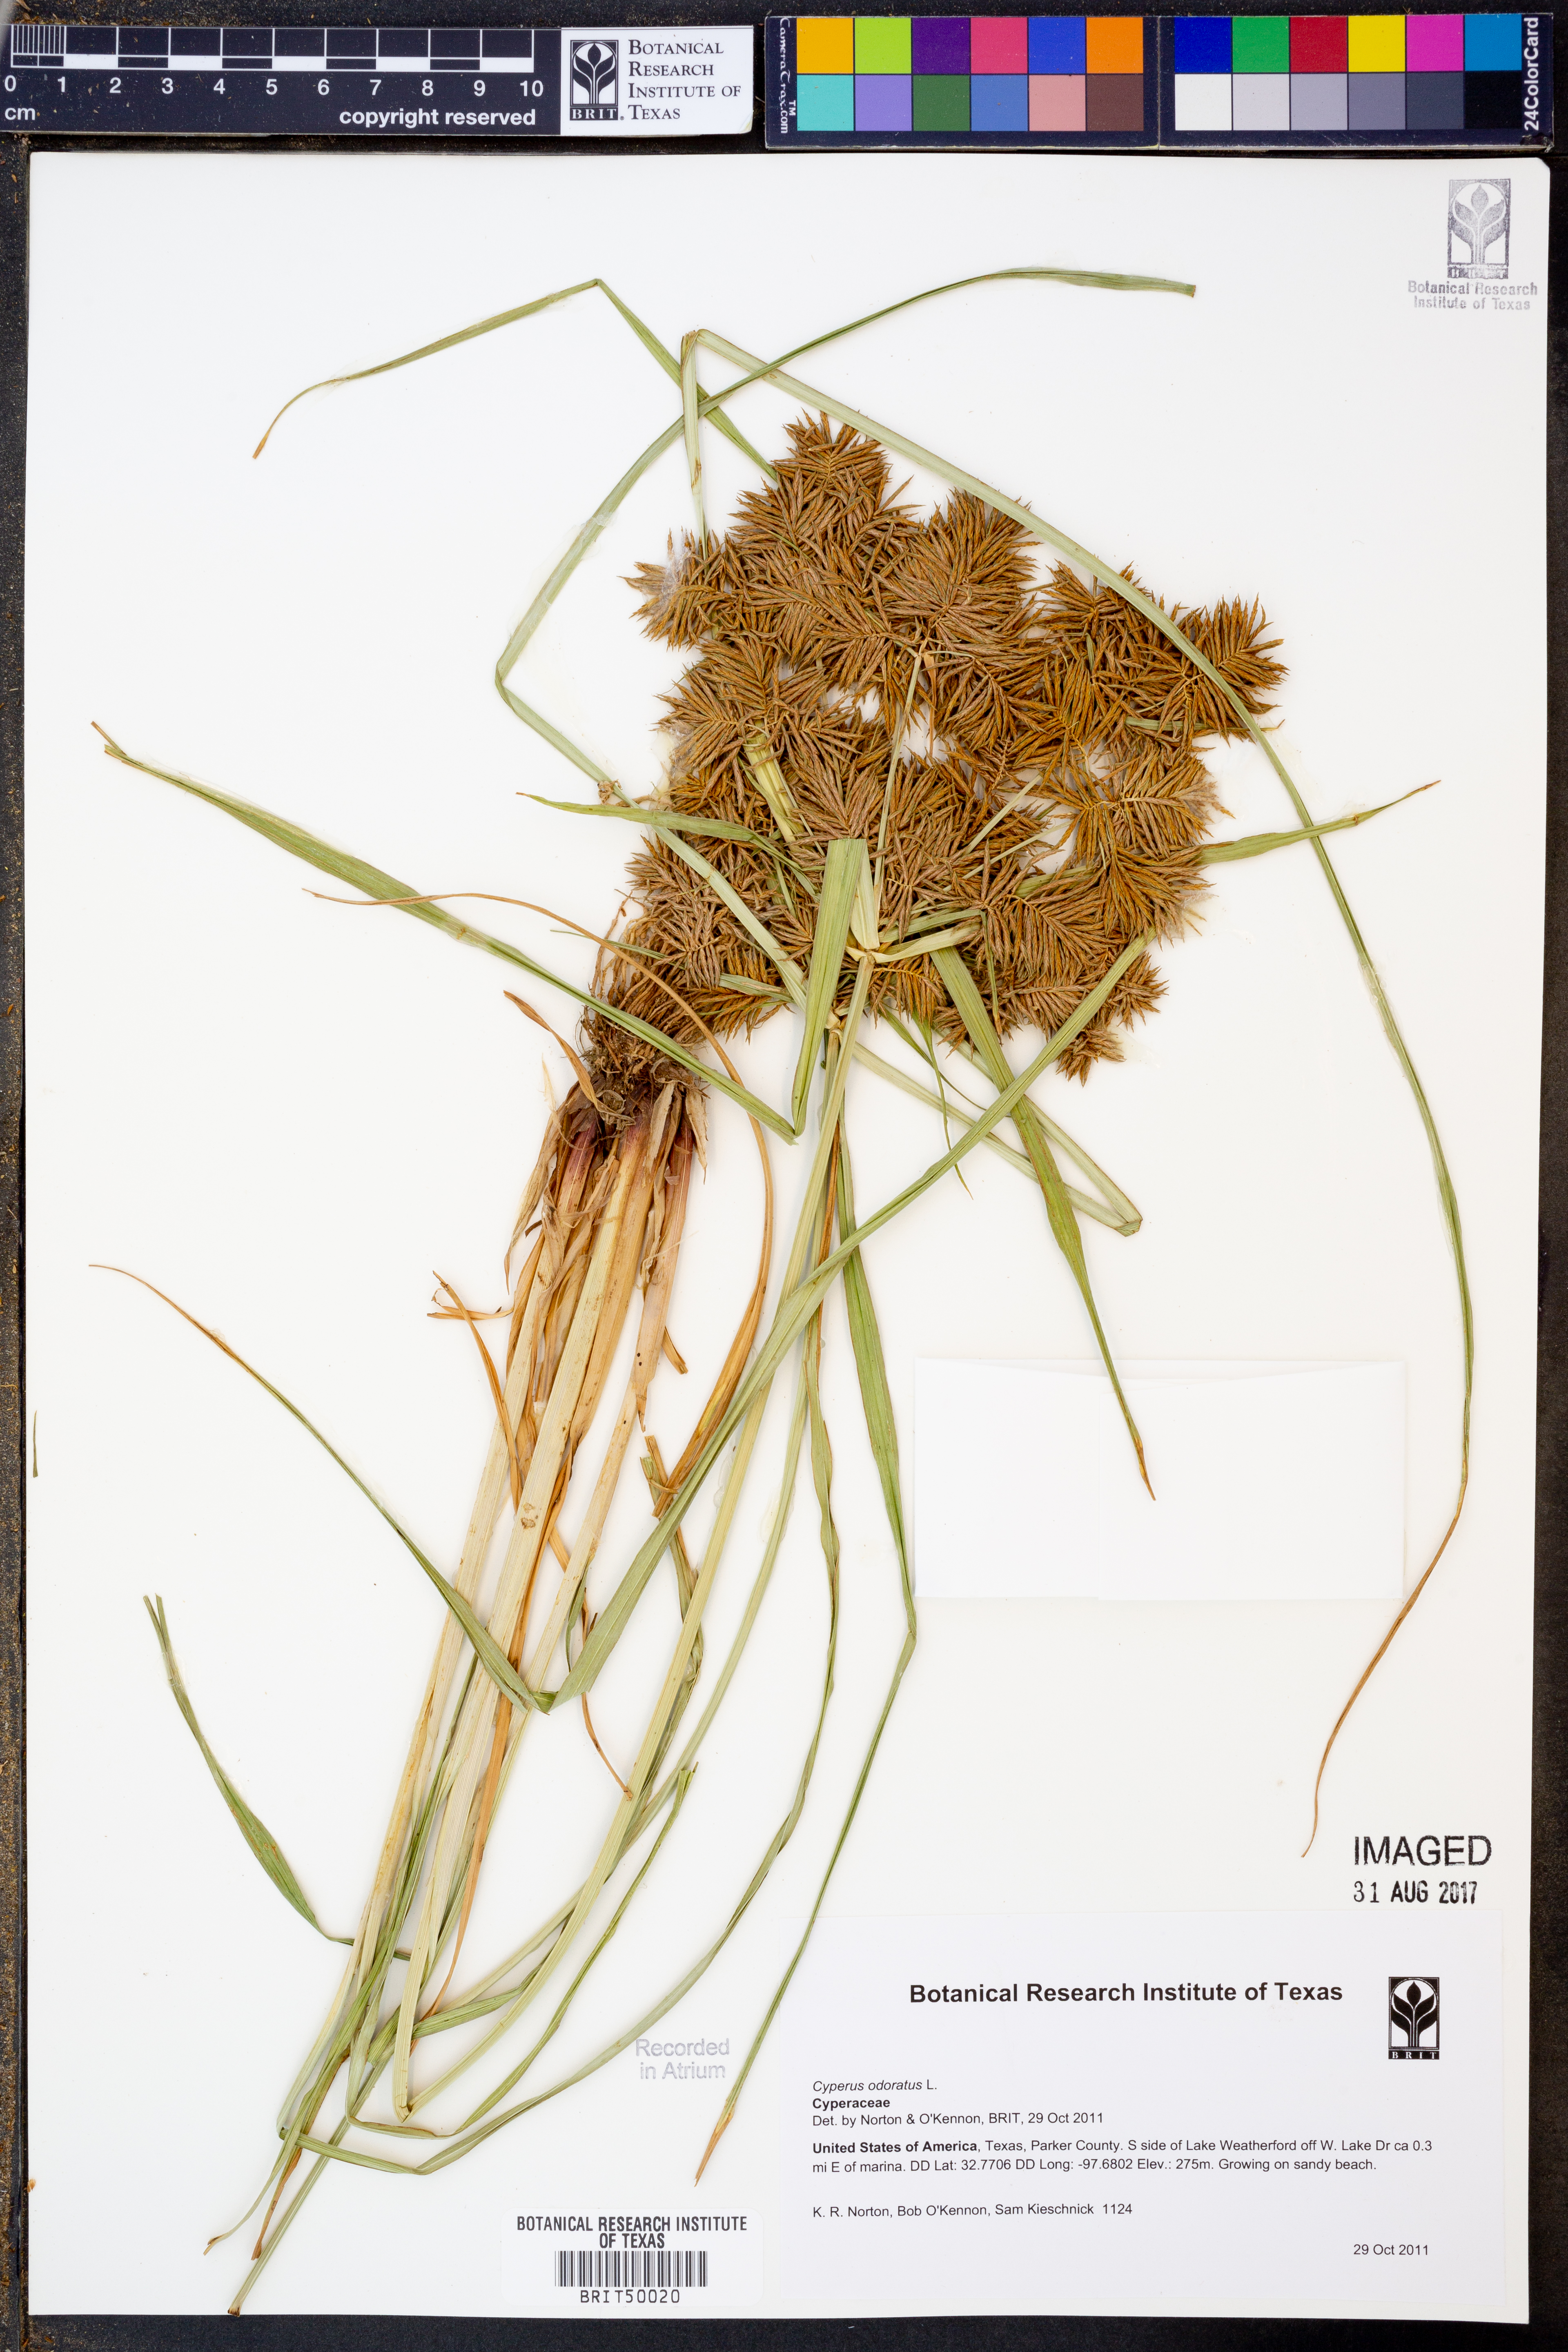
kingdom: Plantae
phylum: Tracheophyta
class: Liliopsida
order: Poales
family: Cyperaceae
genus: Cyperus
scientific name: Cyperus odoratus
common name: Fragrant flatsedge
